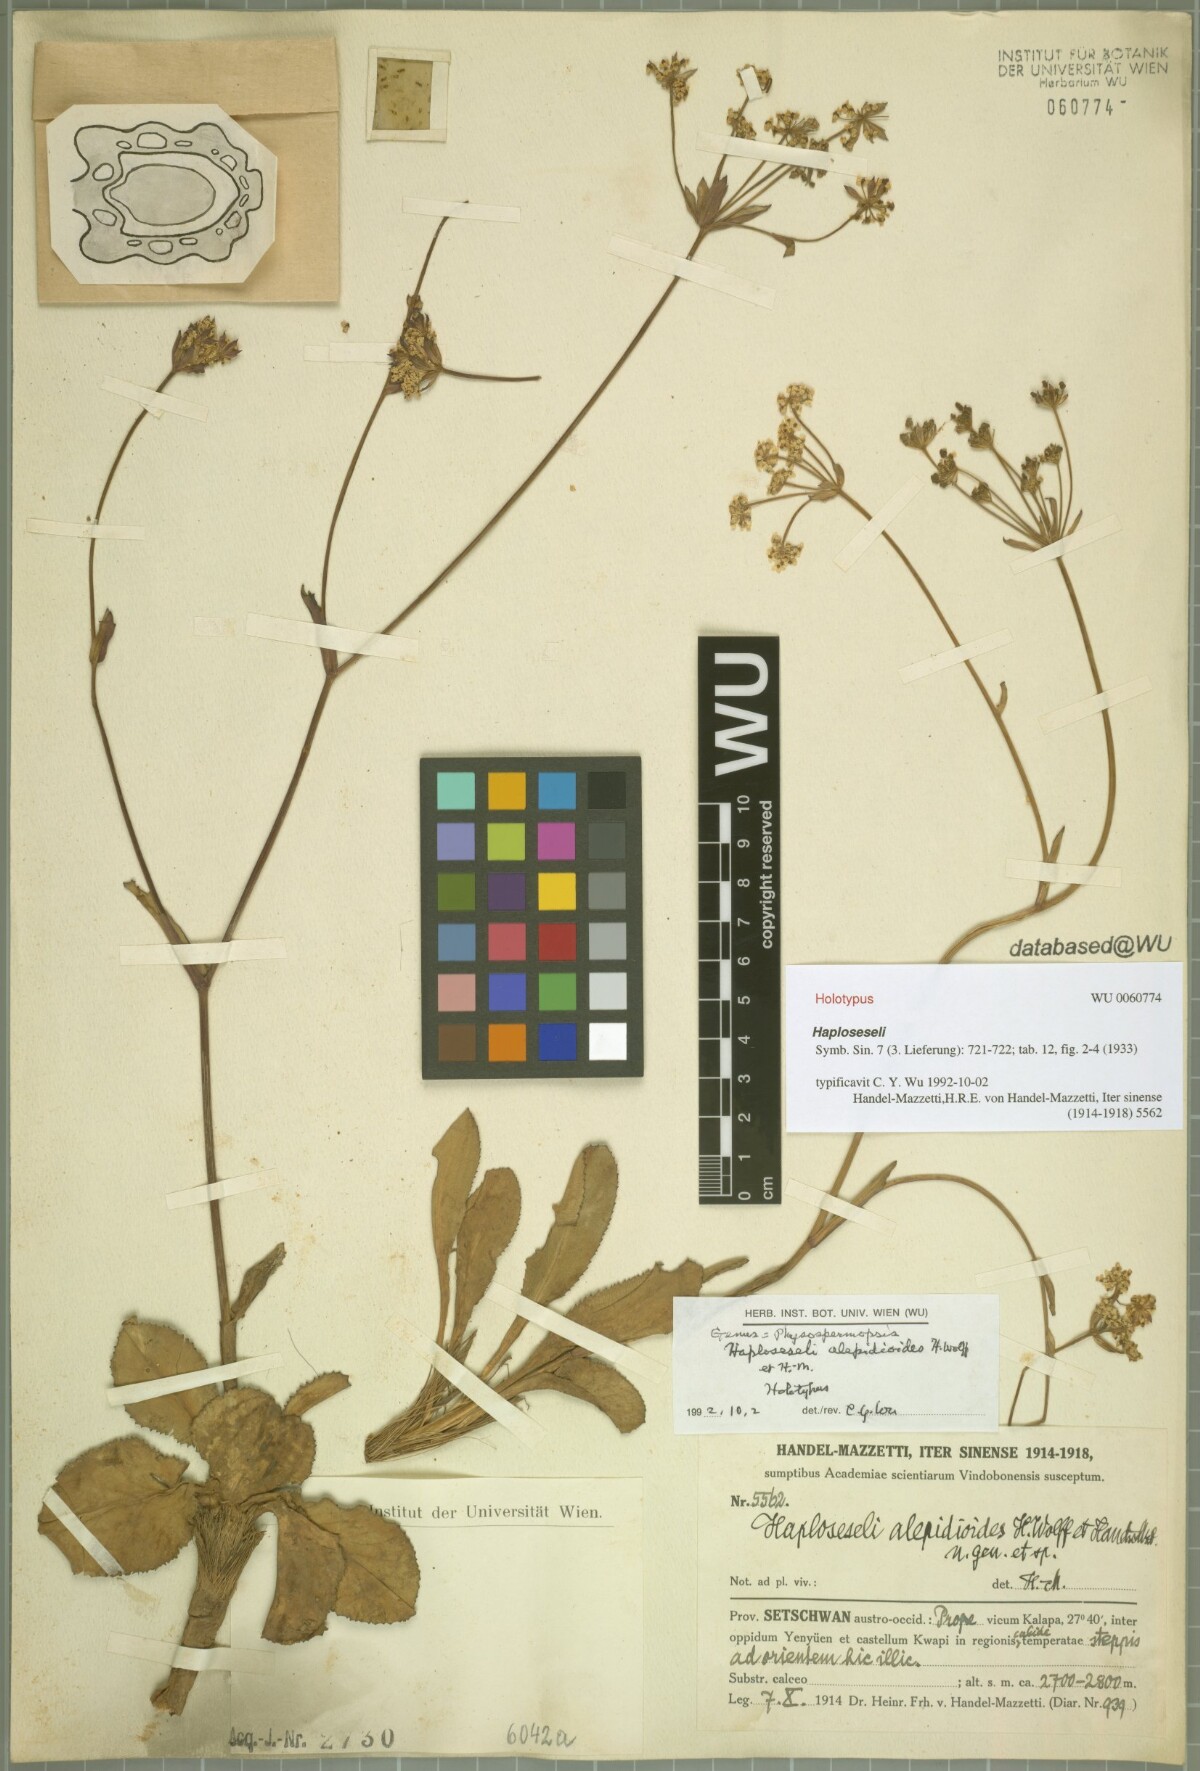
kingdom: Plantae
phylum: Tracheophyta
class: Magnoliopsida
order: Apiales
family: Apiaceae
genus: Physospermopsis
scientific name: Physospermopsis alepidioides
